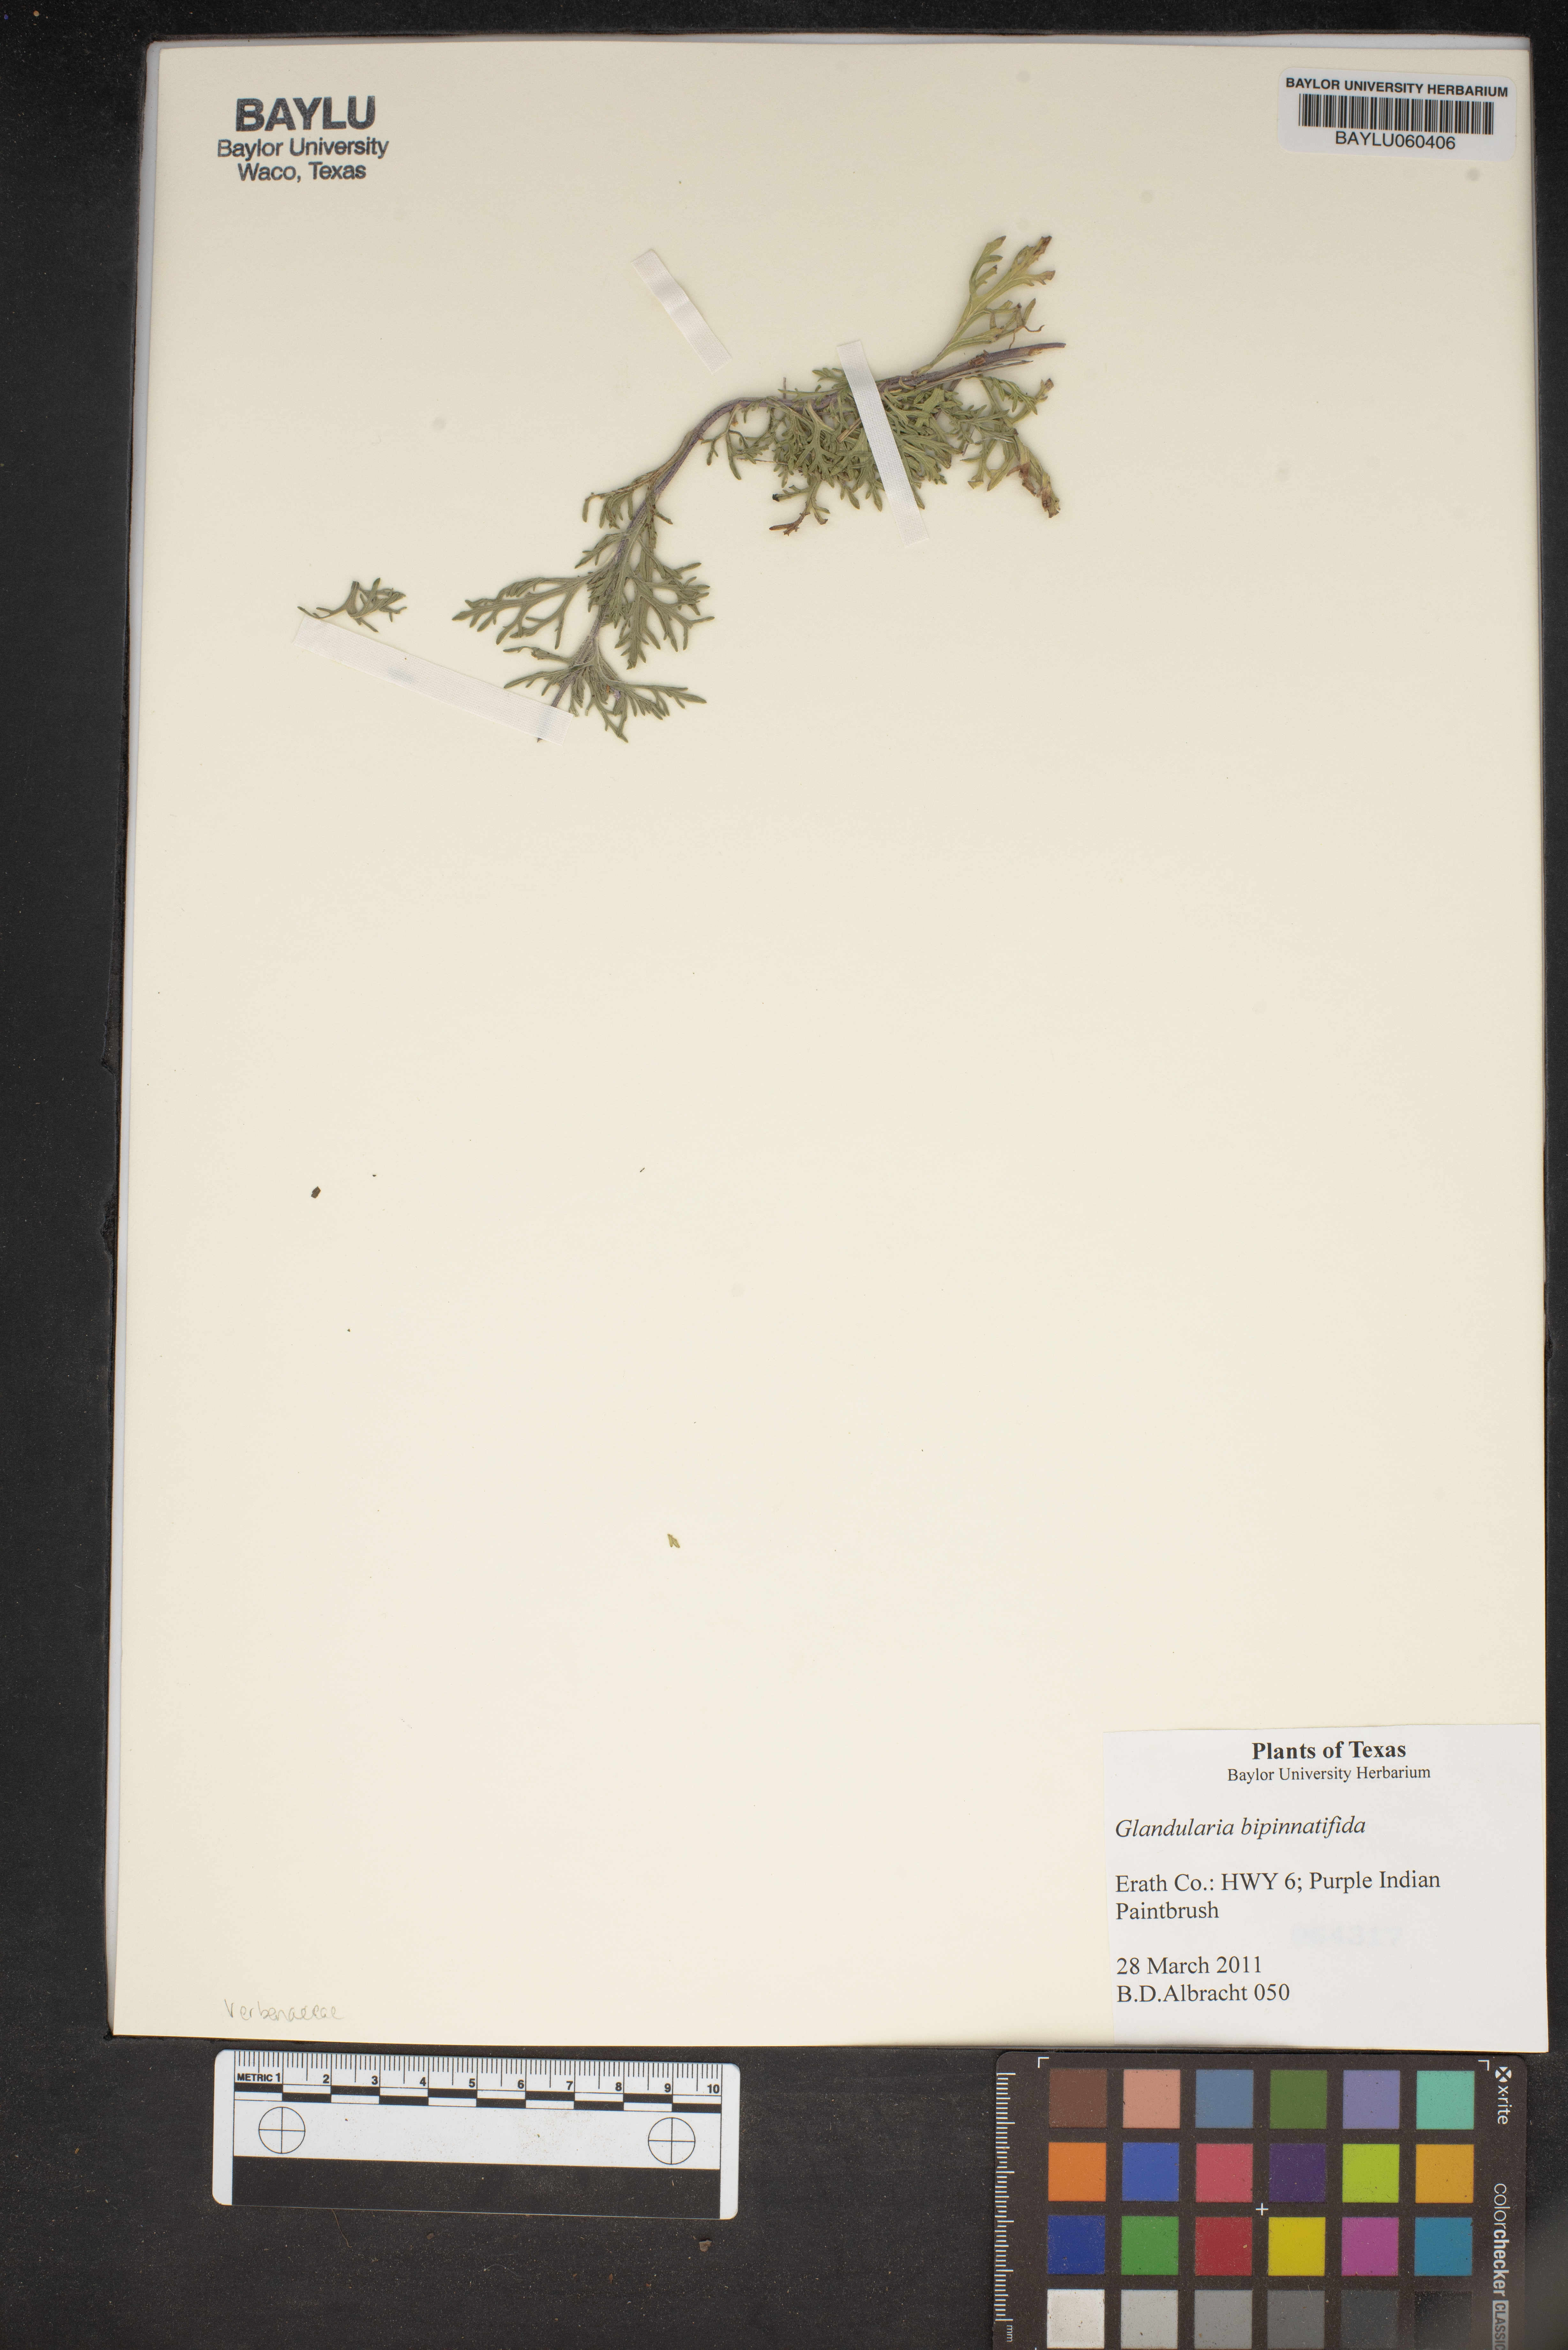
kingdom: Plantae
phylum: Tracheophyta
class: Magnoliopsida
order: Lamiales
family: Verbenaceae
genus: Verbena
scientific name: Verbena bipinnatifida
